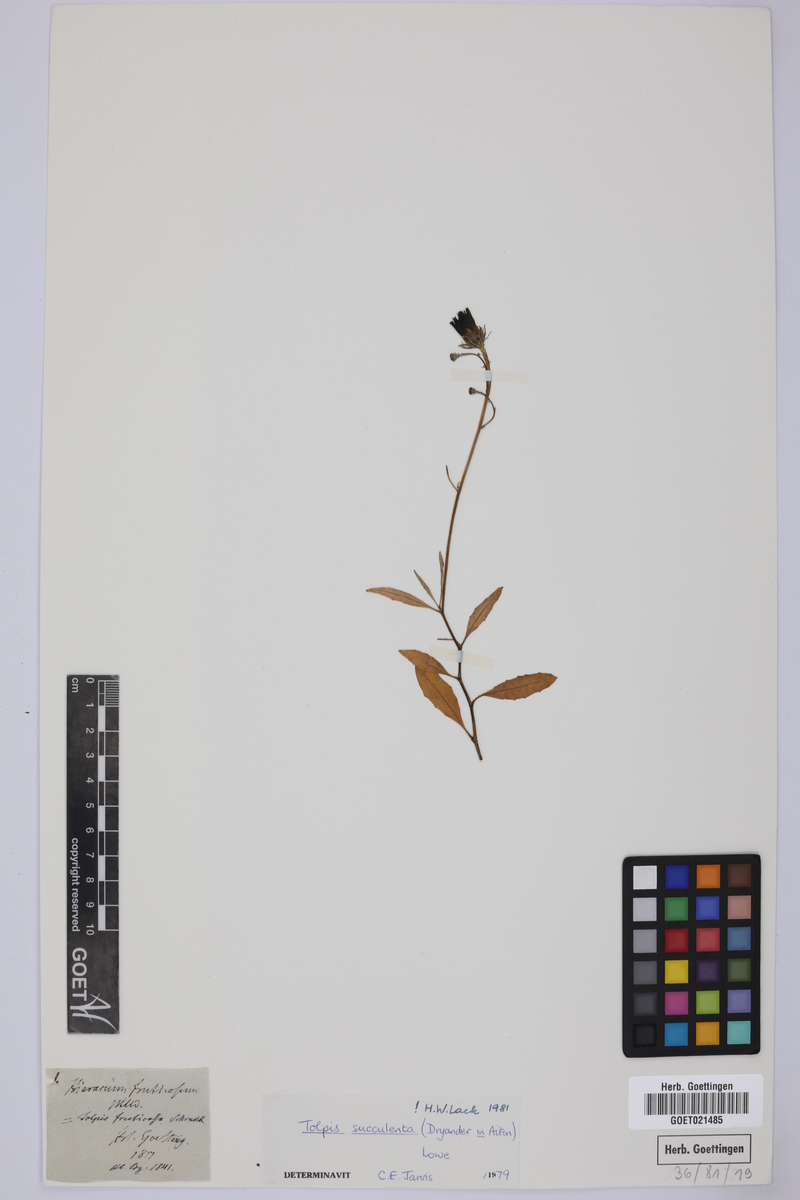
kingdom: Plantae
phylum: Tracheophyta
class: Magnoliopsida
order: Asterales
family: Asteraceae
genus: Tolpis
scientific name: Tolpis succulenta
